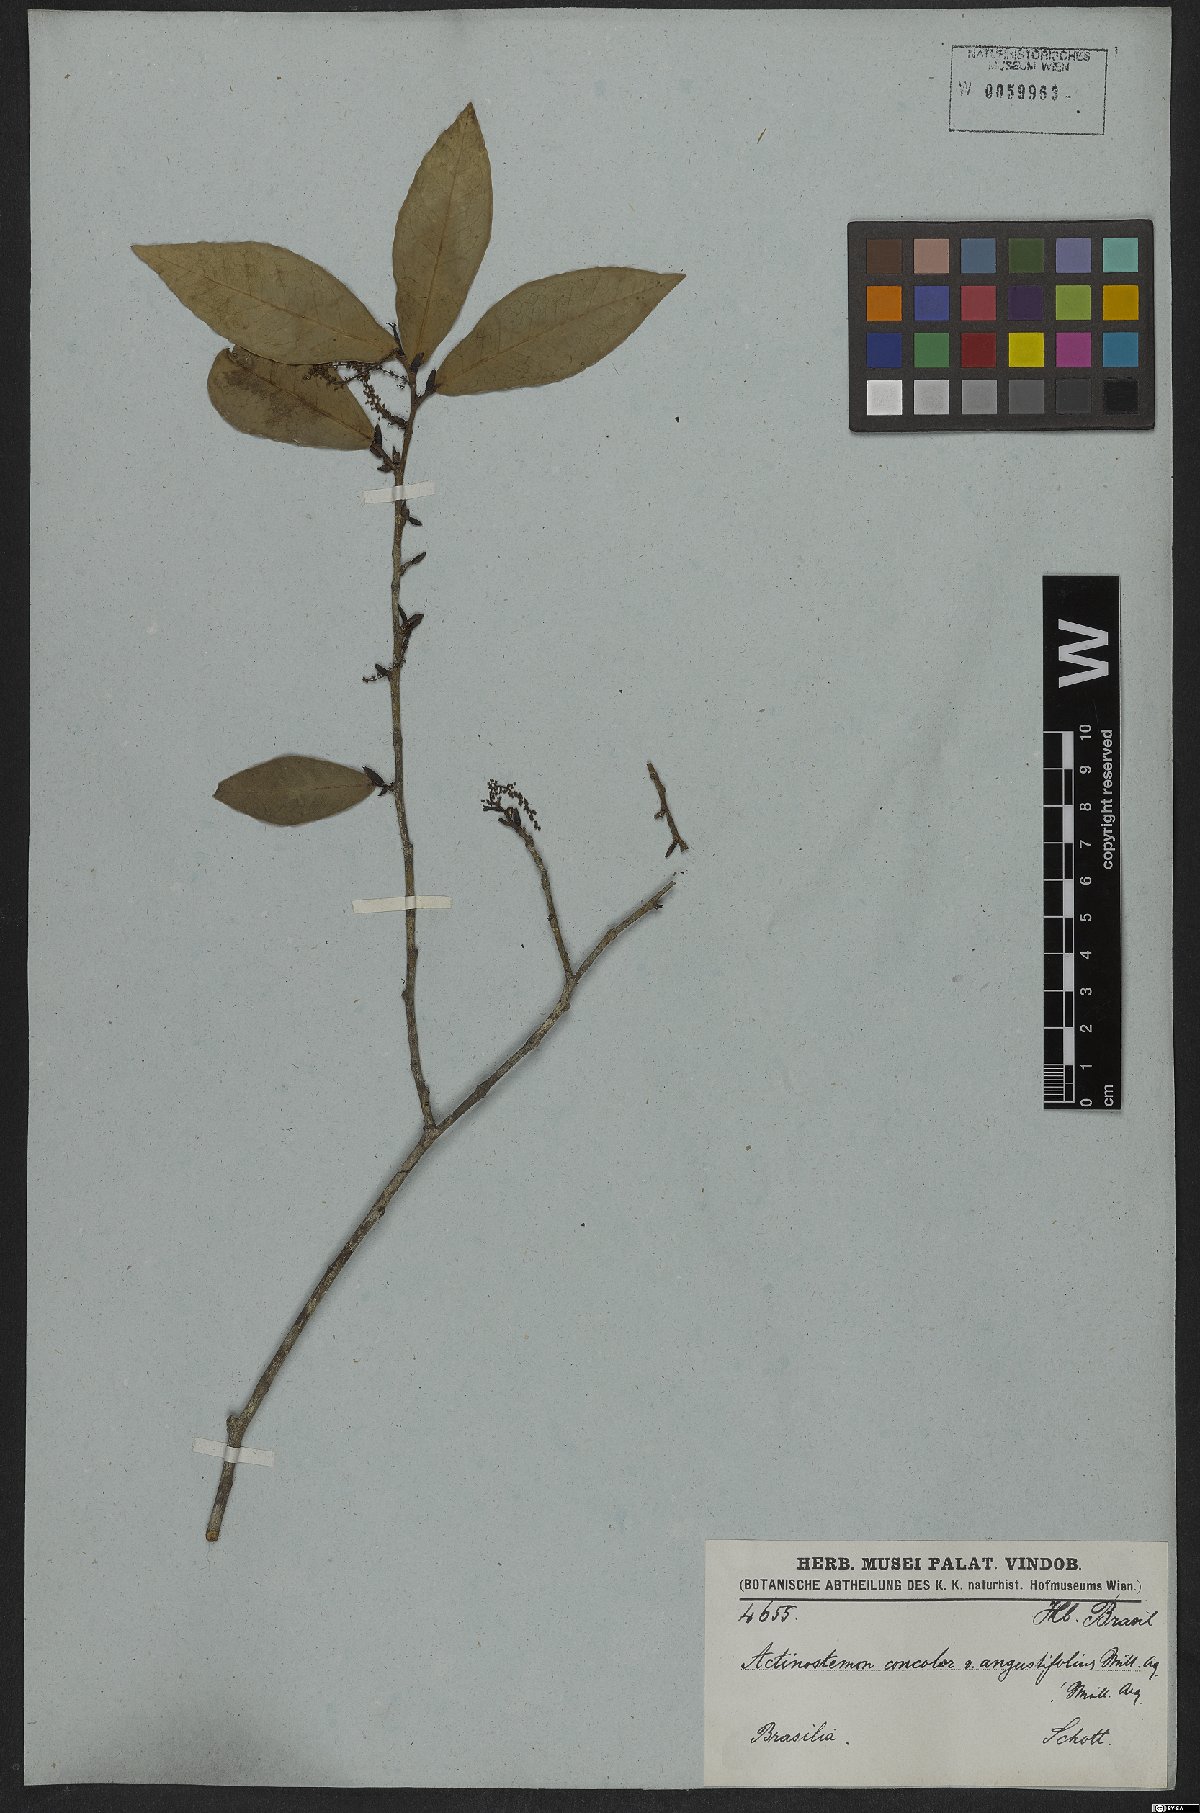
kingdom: Plantae
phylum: Tracheophyta
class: Magnoliopsida
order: Malpighiales
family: Euphorbiaceae
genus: Actinostemon
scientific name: Actinostemon concolor
